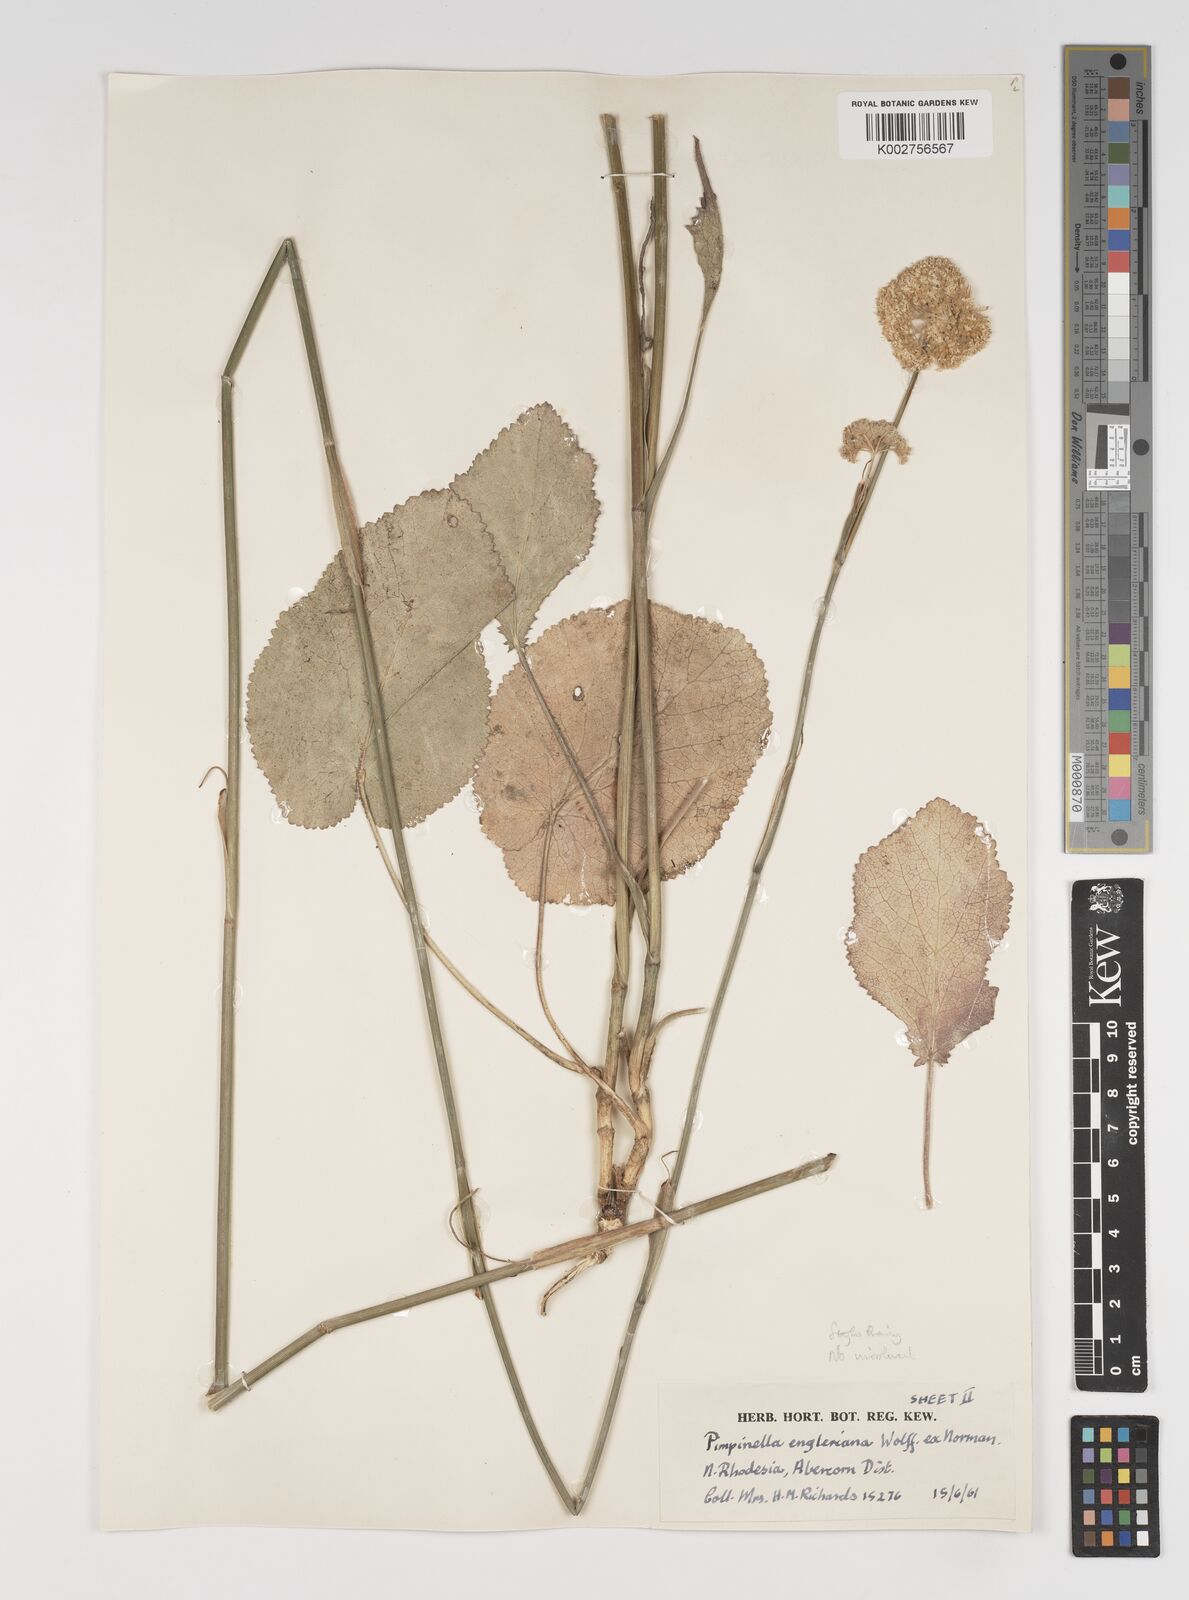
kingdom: Plantae
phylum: Tracheophyta
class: Magnoliopsida
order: Apiales
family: Apiaceae
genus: Pimpinella
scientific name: Pimpinella kingdon-wardii
